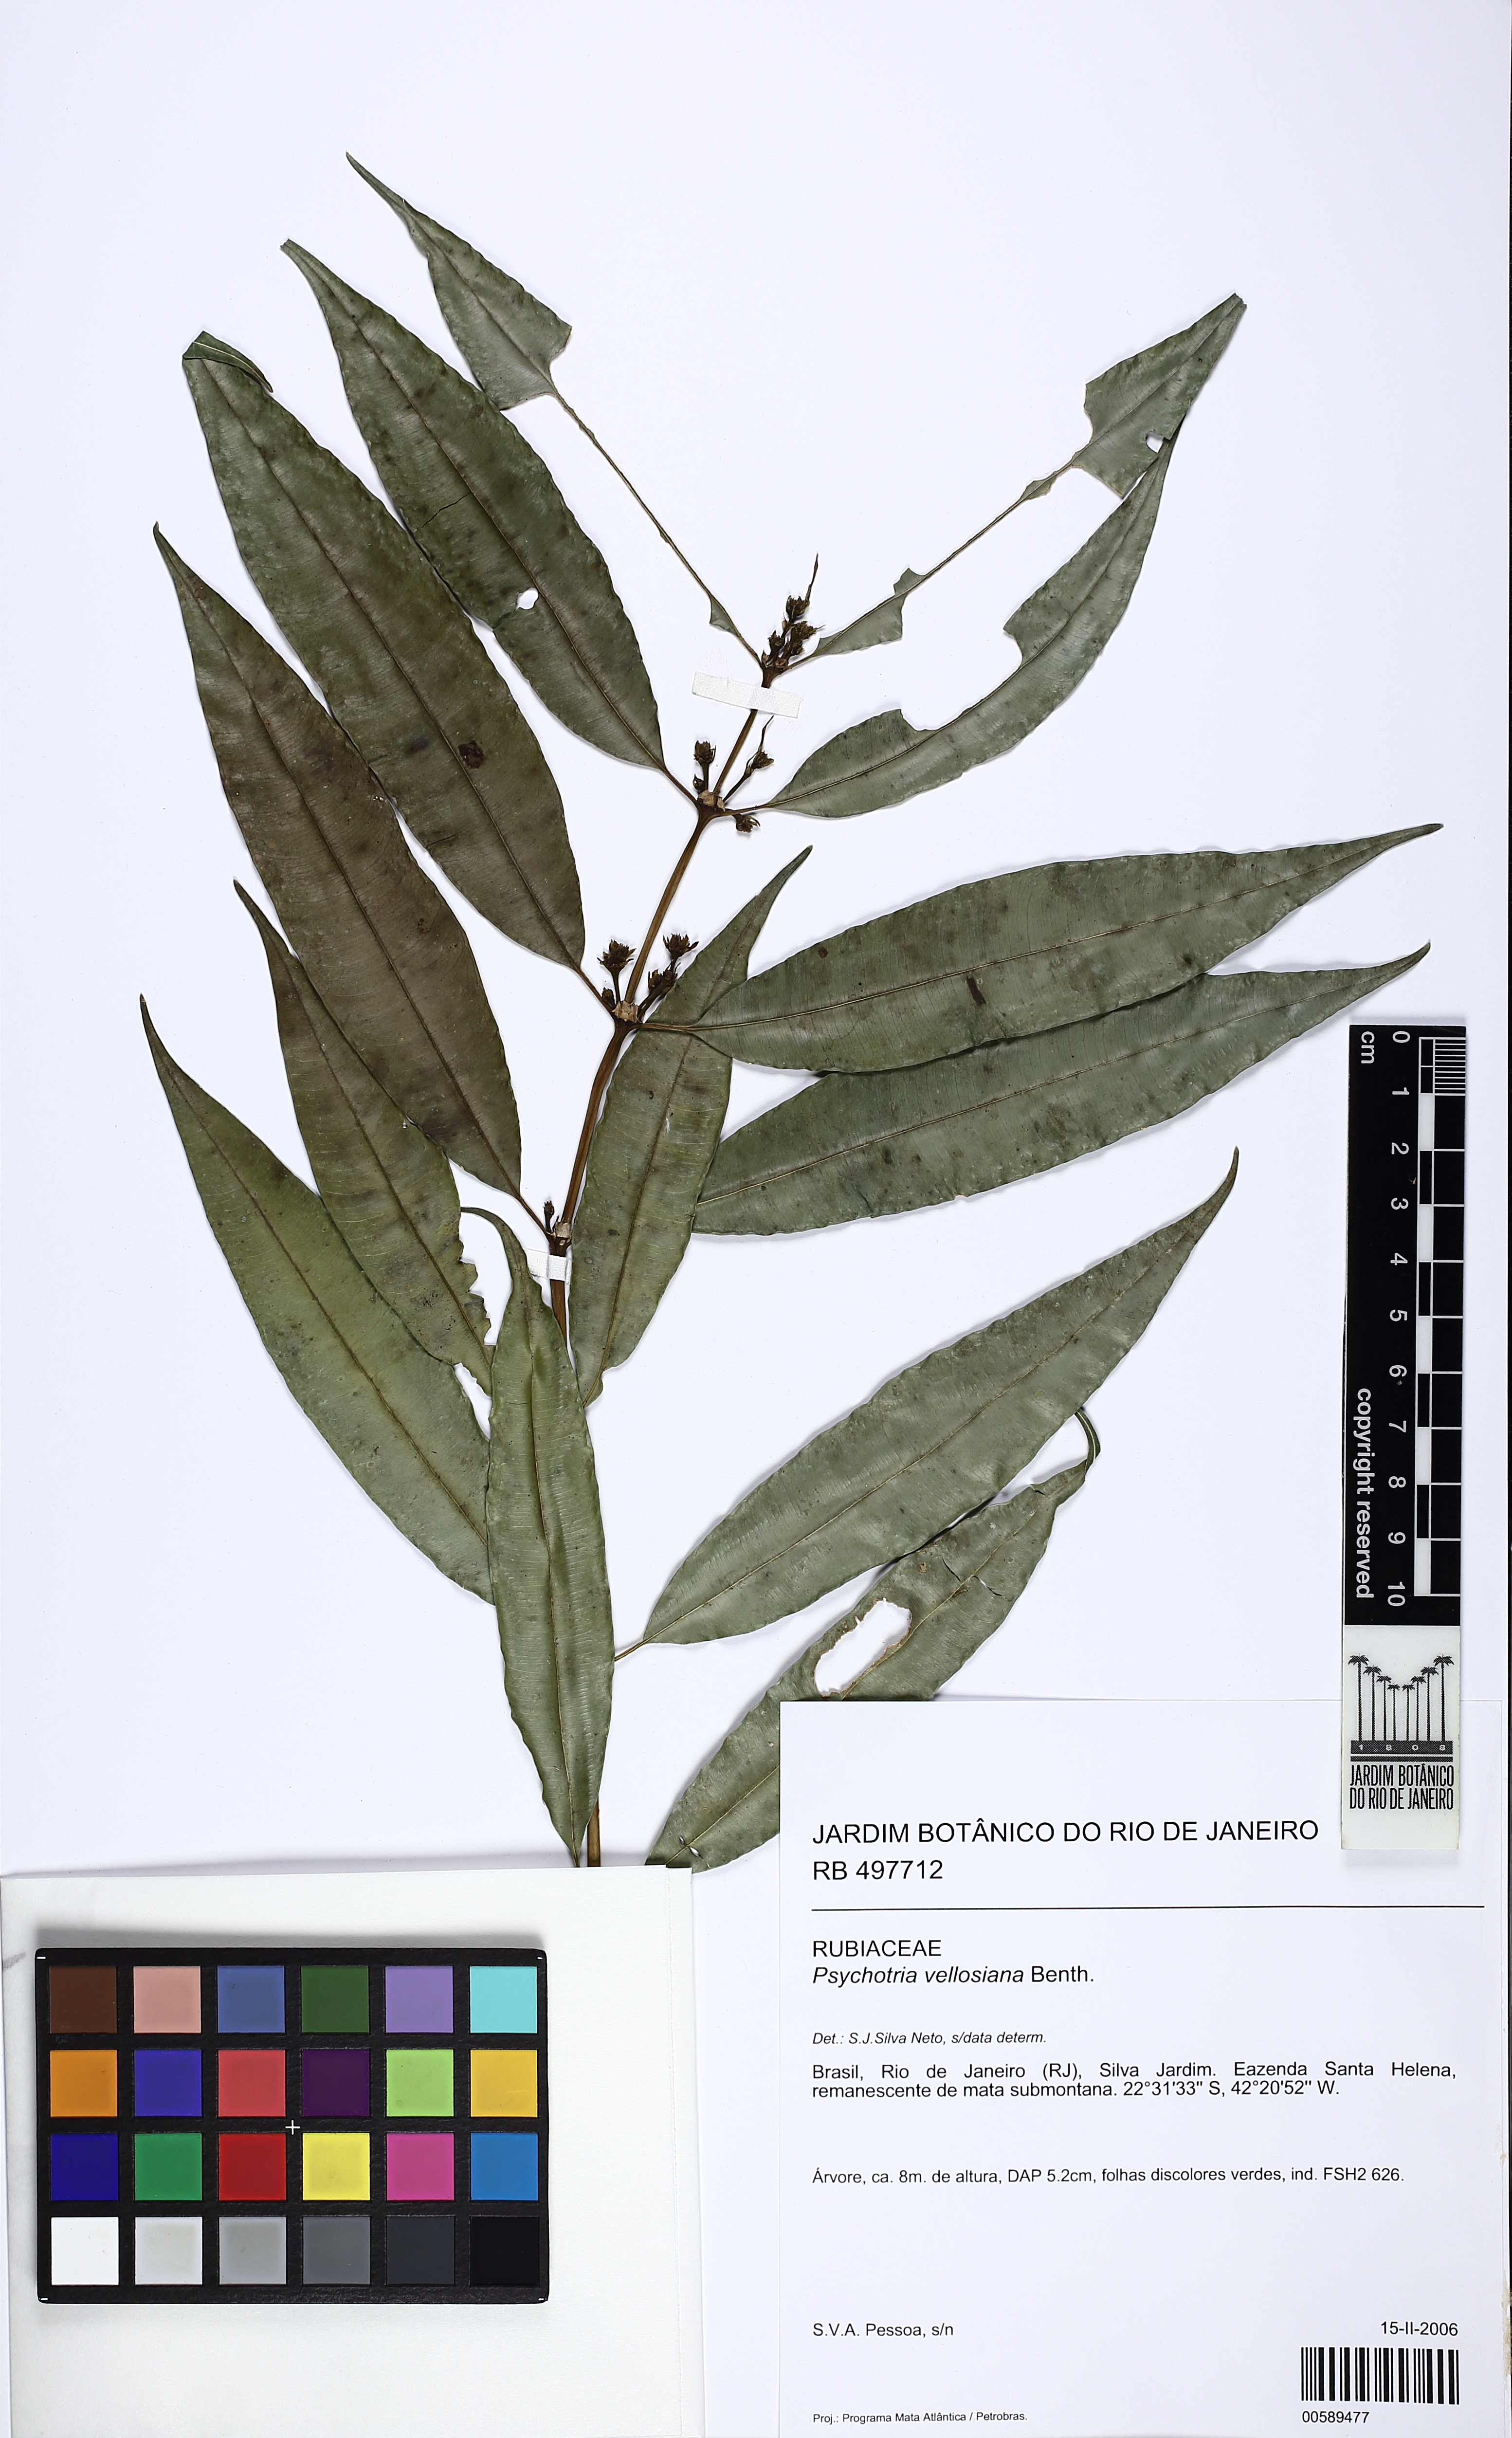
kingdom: Plantae
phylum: Tracheophyta
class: Magnoliopsida
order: Gentianales
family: Rubiaceae
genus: Palicourea
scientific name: Palicourea sessilis
